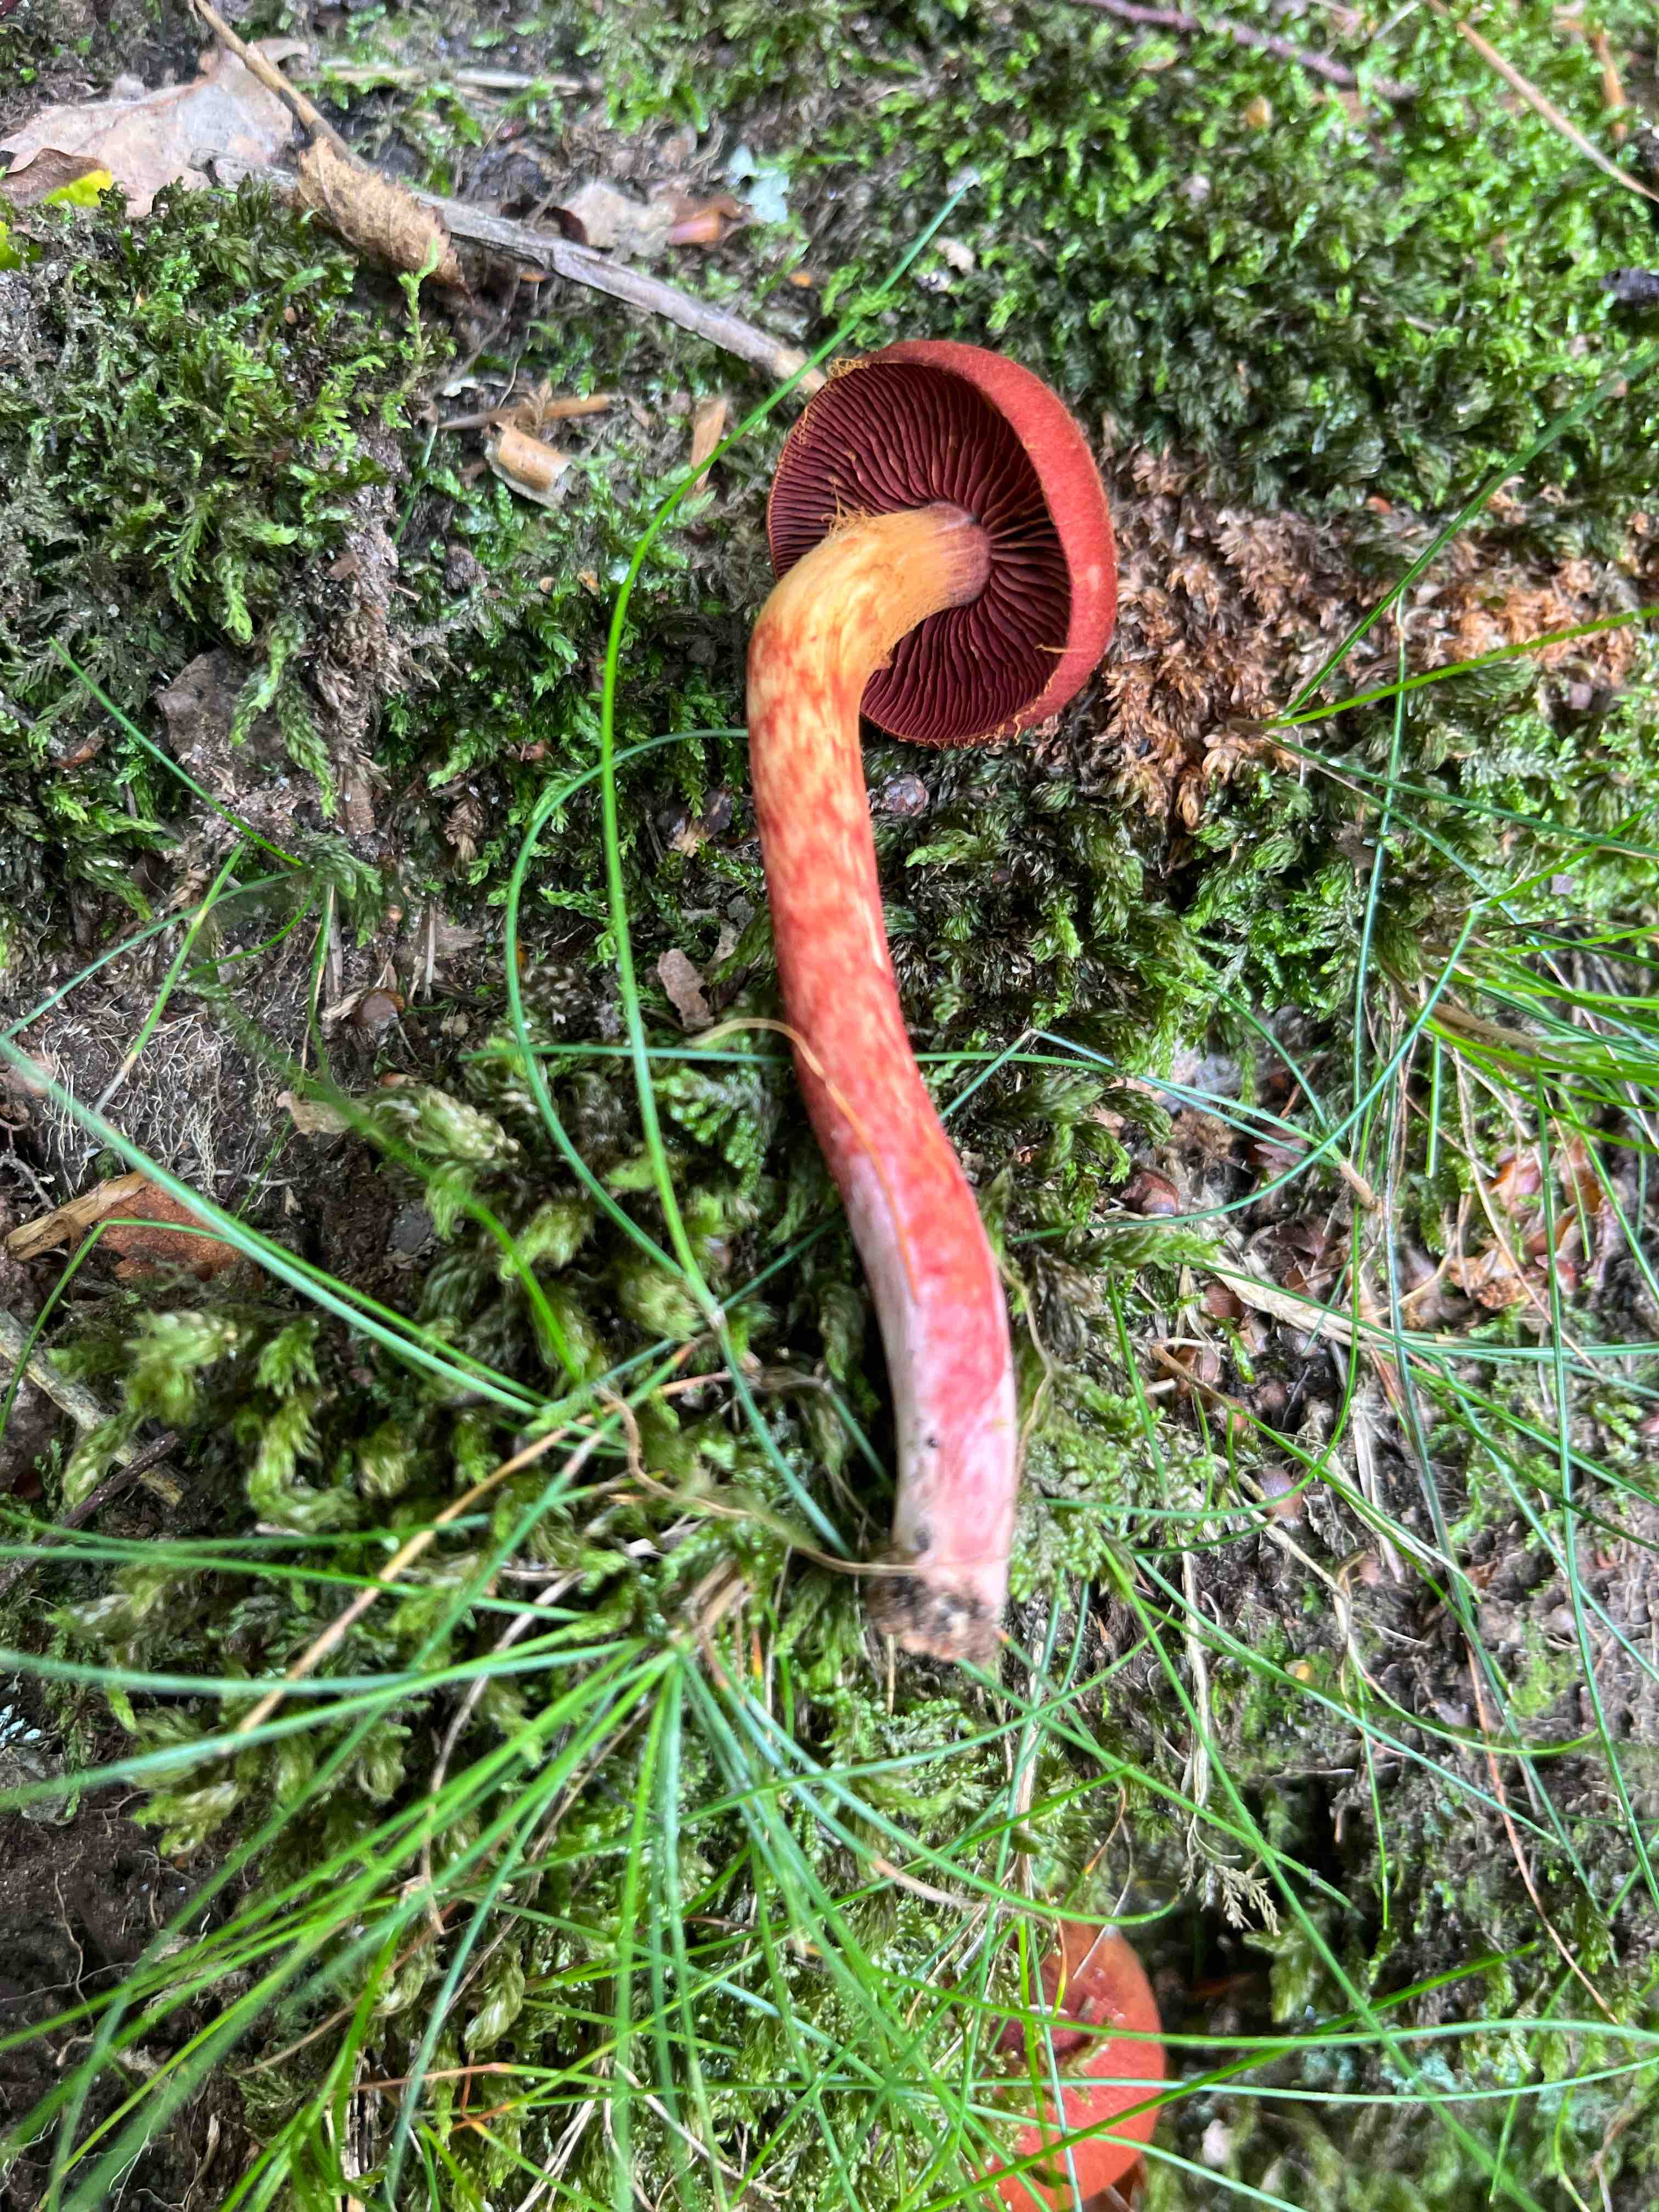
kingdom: Fungi
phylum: Basidiomycota
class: Agaricomycetes
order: Agaricales
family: Cortinariaceae
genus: Cortinarius
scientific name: Cortinarius
